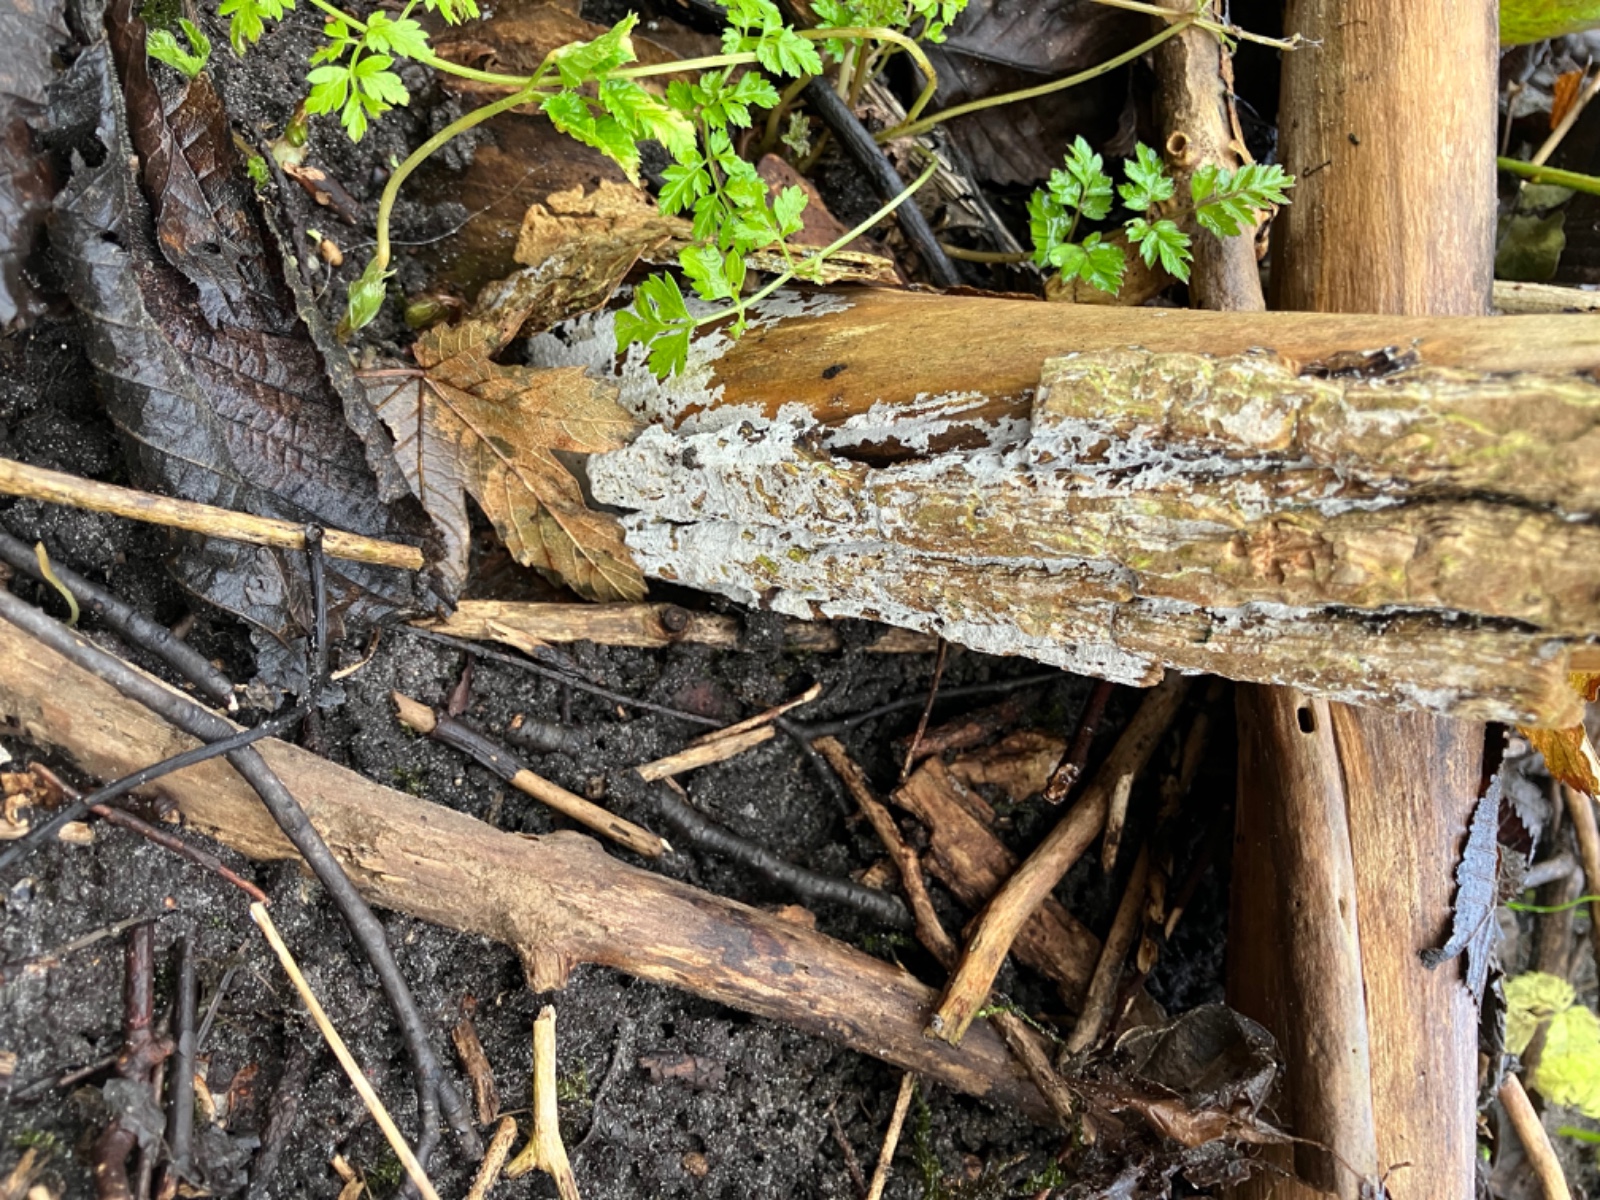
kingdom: Fungi
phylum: Basidiomycota
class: Agaricomycetes
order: Corticiales
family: Corticiaceae
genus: Lyomyces
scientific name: Lyomyces sambuci
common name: almindelig hyldehinde
